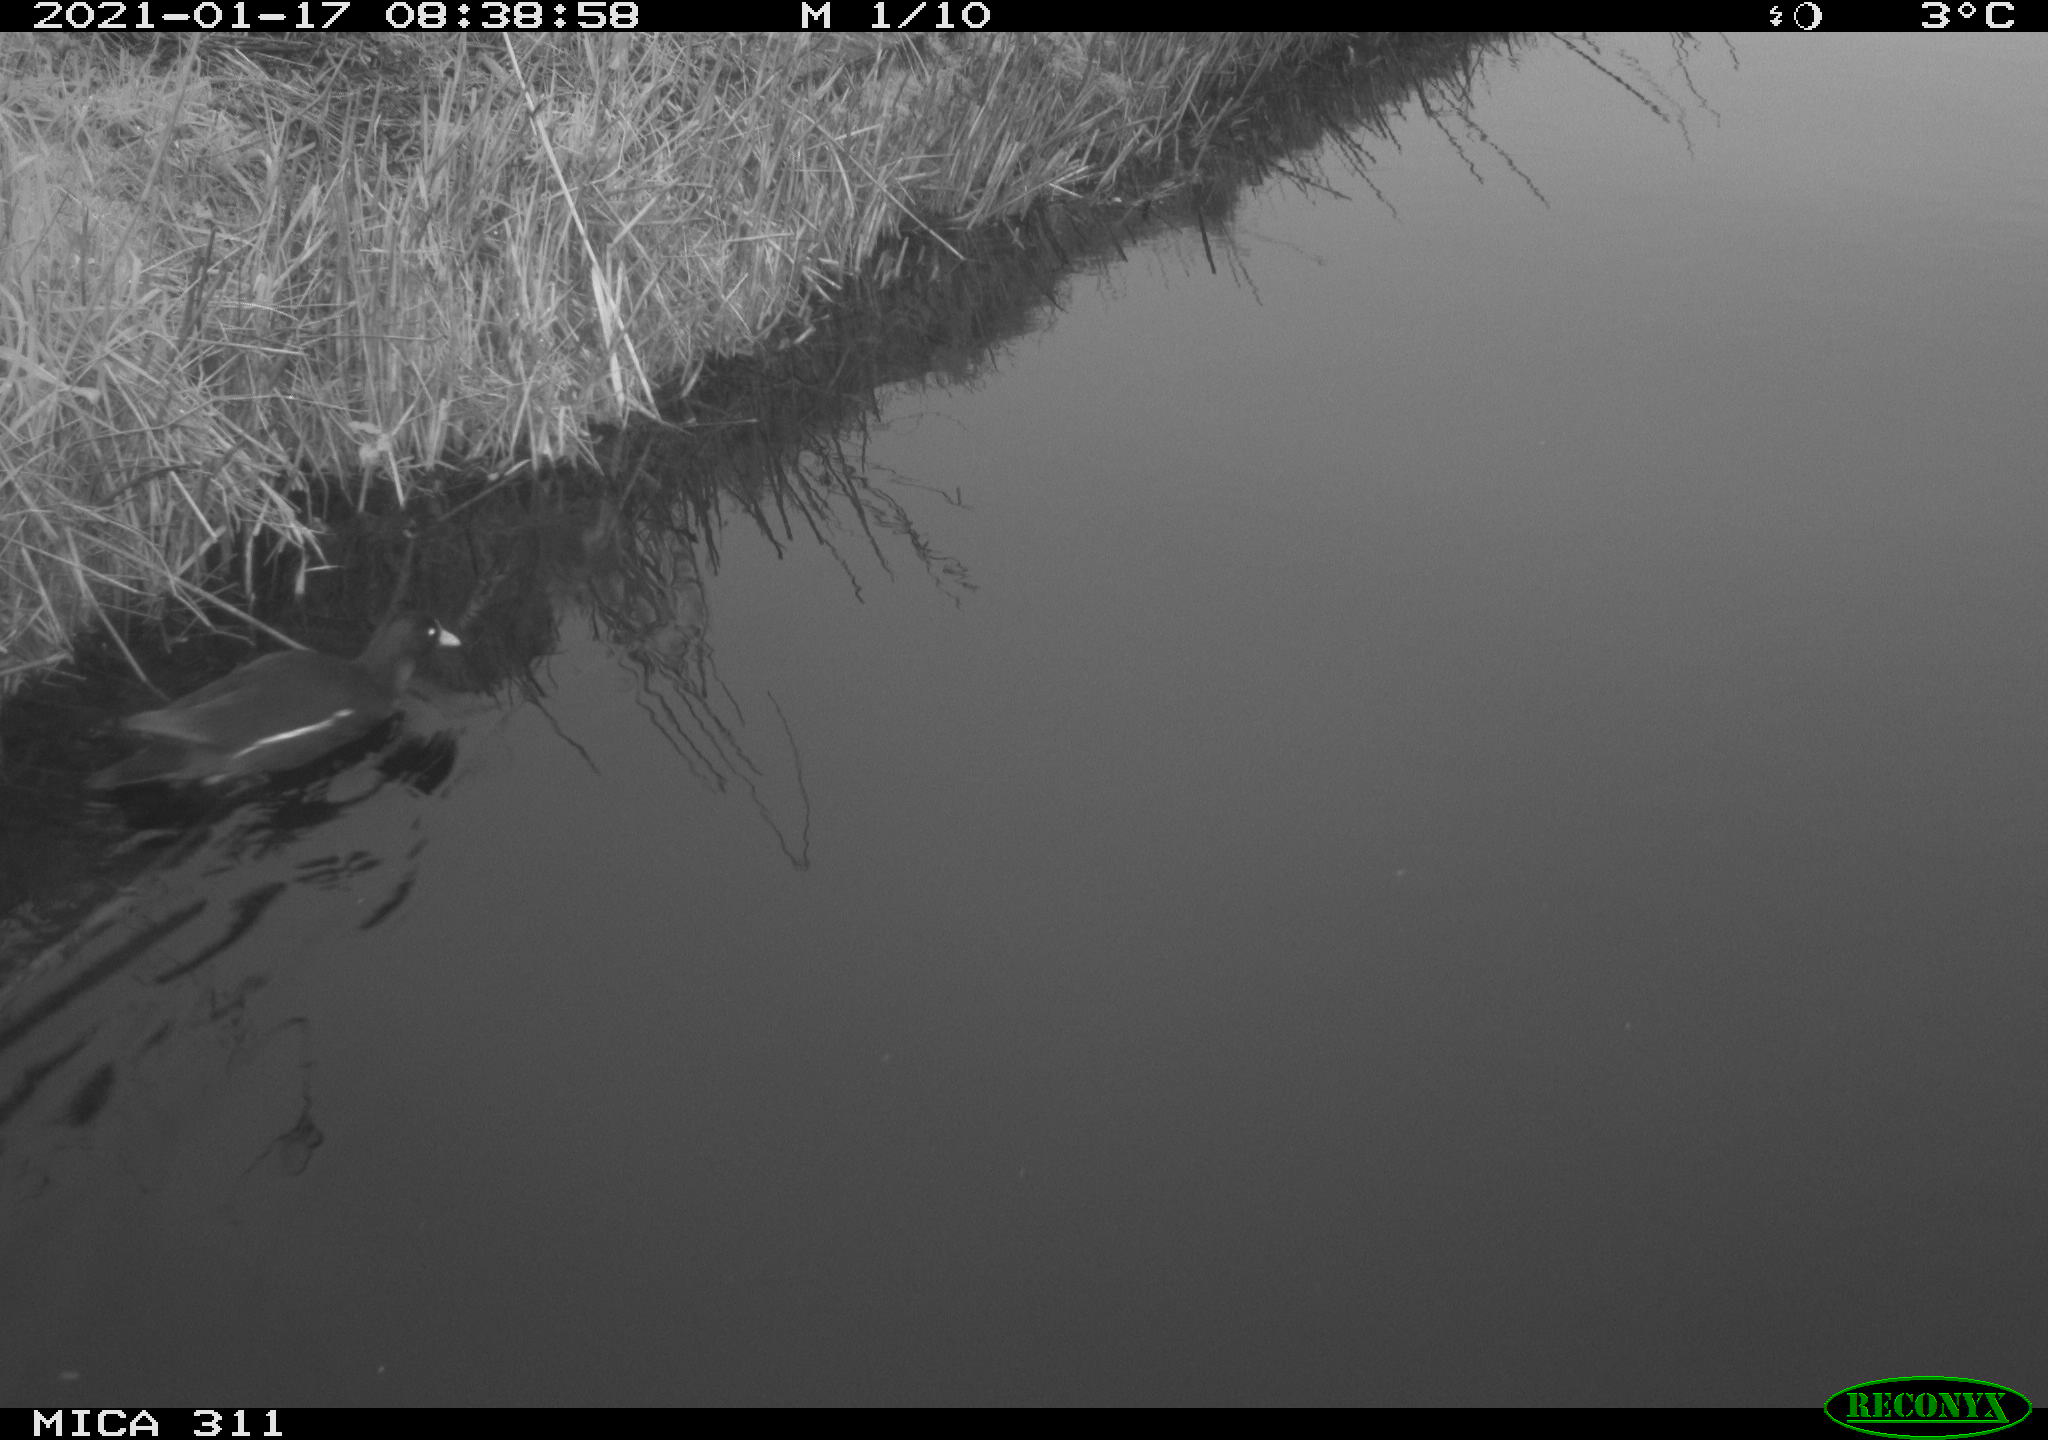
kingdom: Animalia
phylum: Chordata
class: Aves
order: Gruiformes
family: Rallidae
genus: Gallinula
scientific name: Gallinula chloropus
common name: Common moorhen
